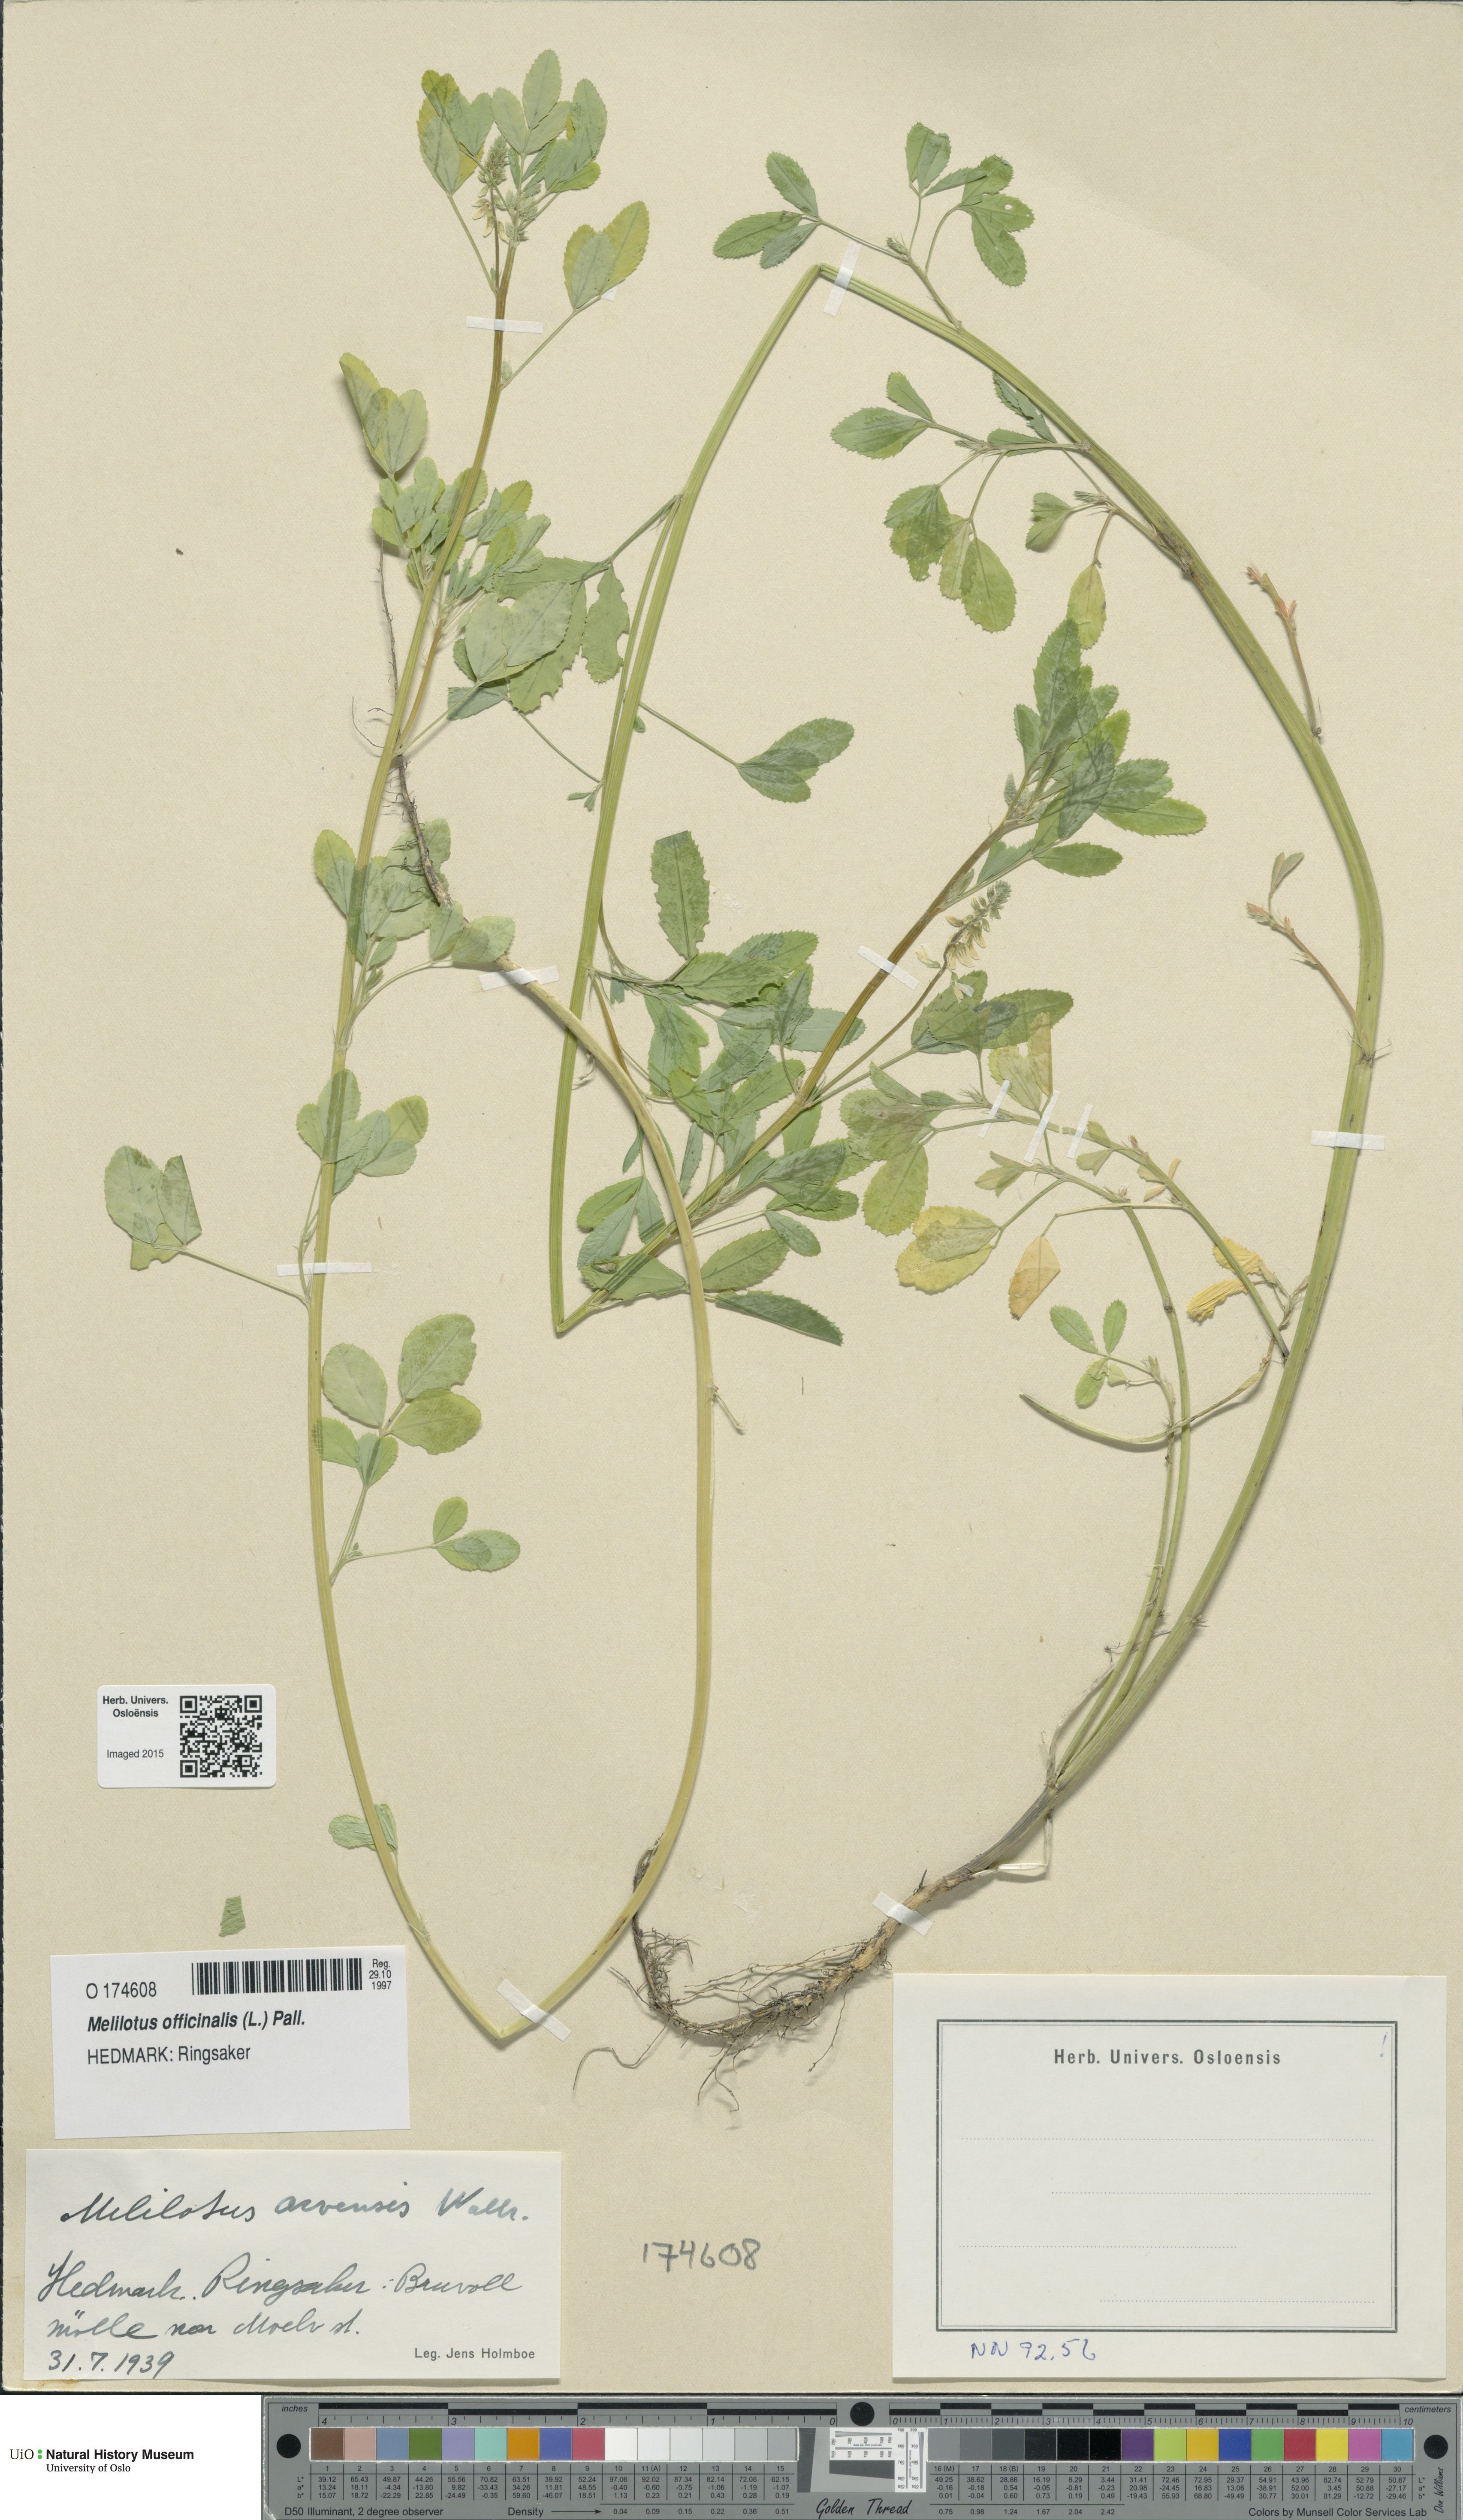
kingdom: Plantae
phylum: Tracheophyta
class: Magnoliopsida
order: Fabales
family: Fabaceae
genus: Melilotus
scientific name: Melilotus officinalis
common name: Sweetclover
